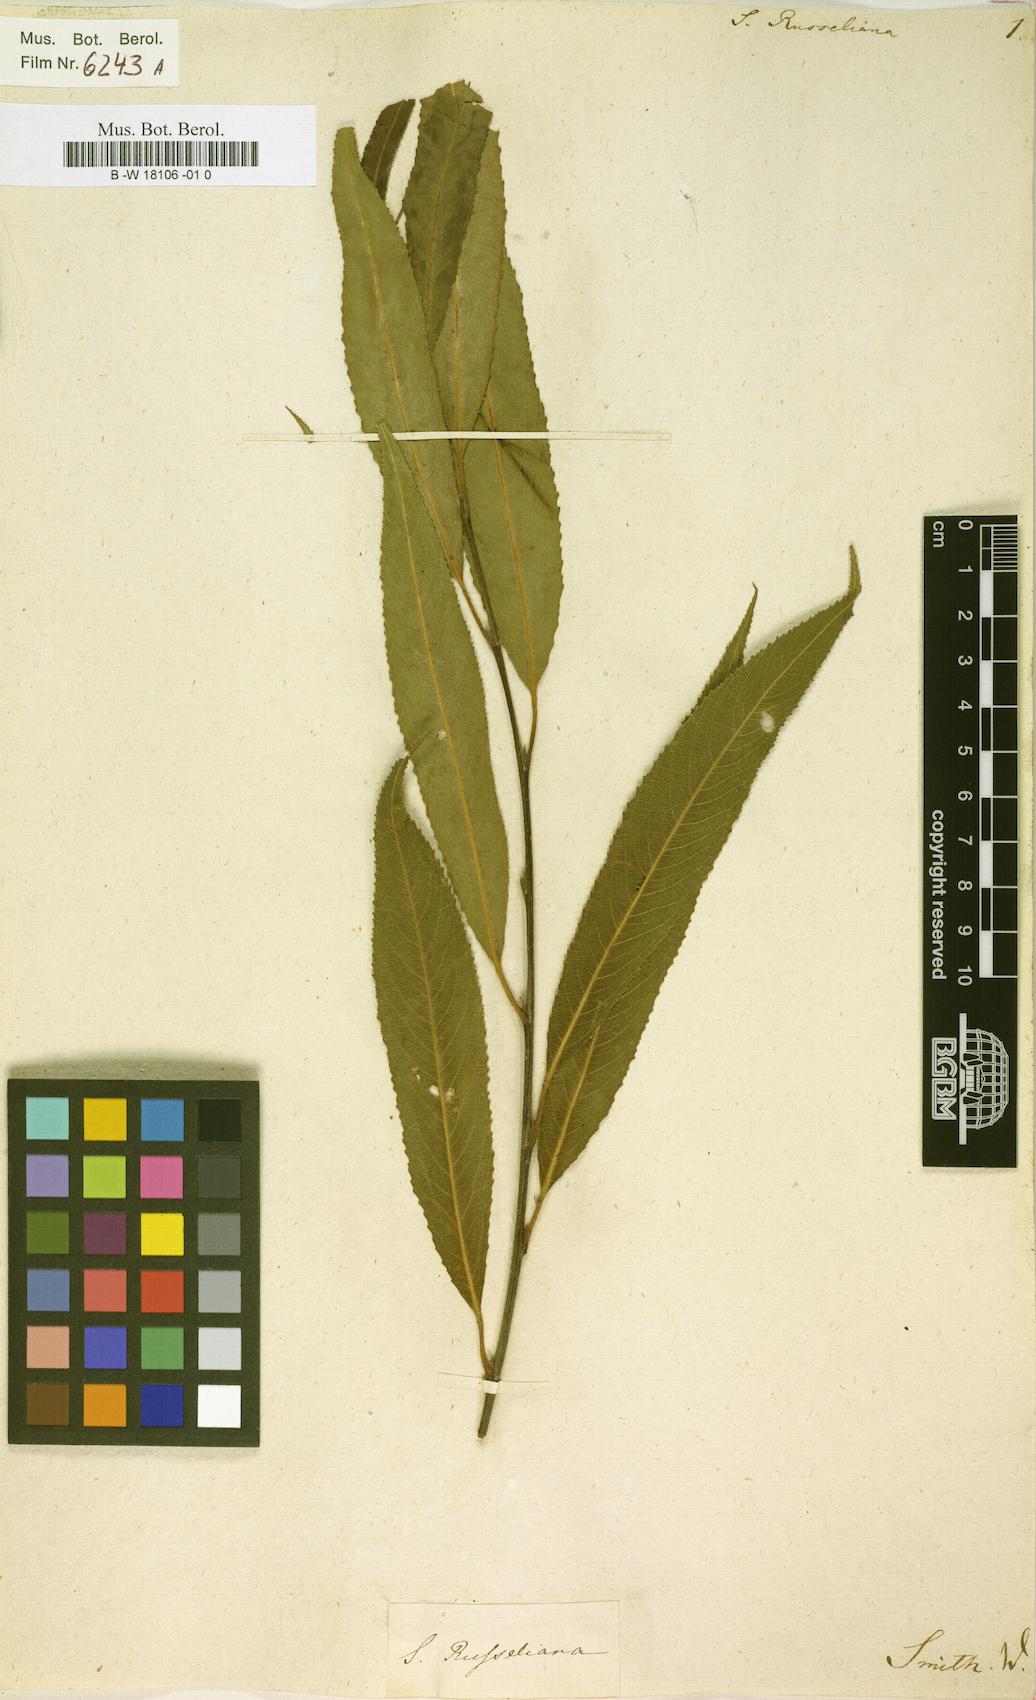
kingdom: Plantae
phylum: Tracheophyta
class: Magnoliopsida
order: Malpighiales
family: Salicaceae
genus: Salix
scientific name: Salix rubens
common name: Hybrid crack willow
